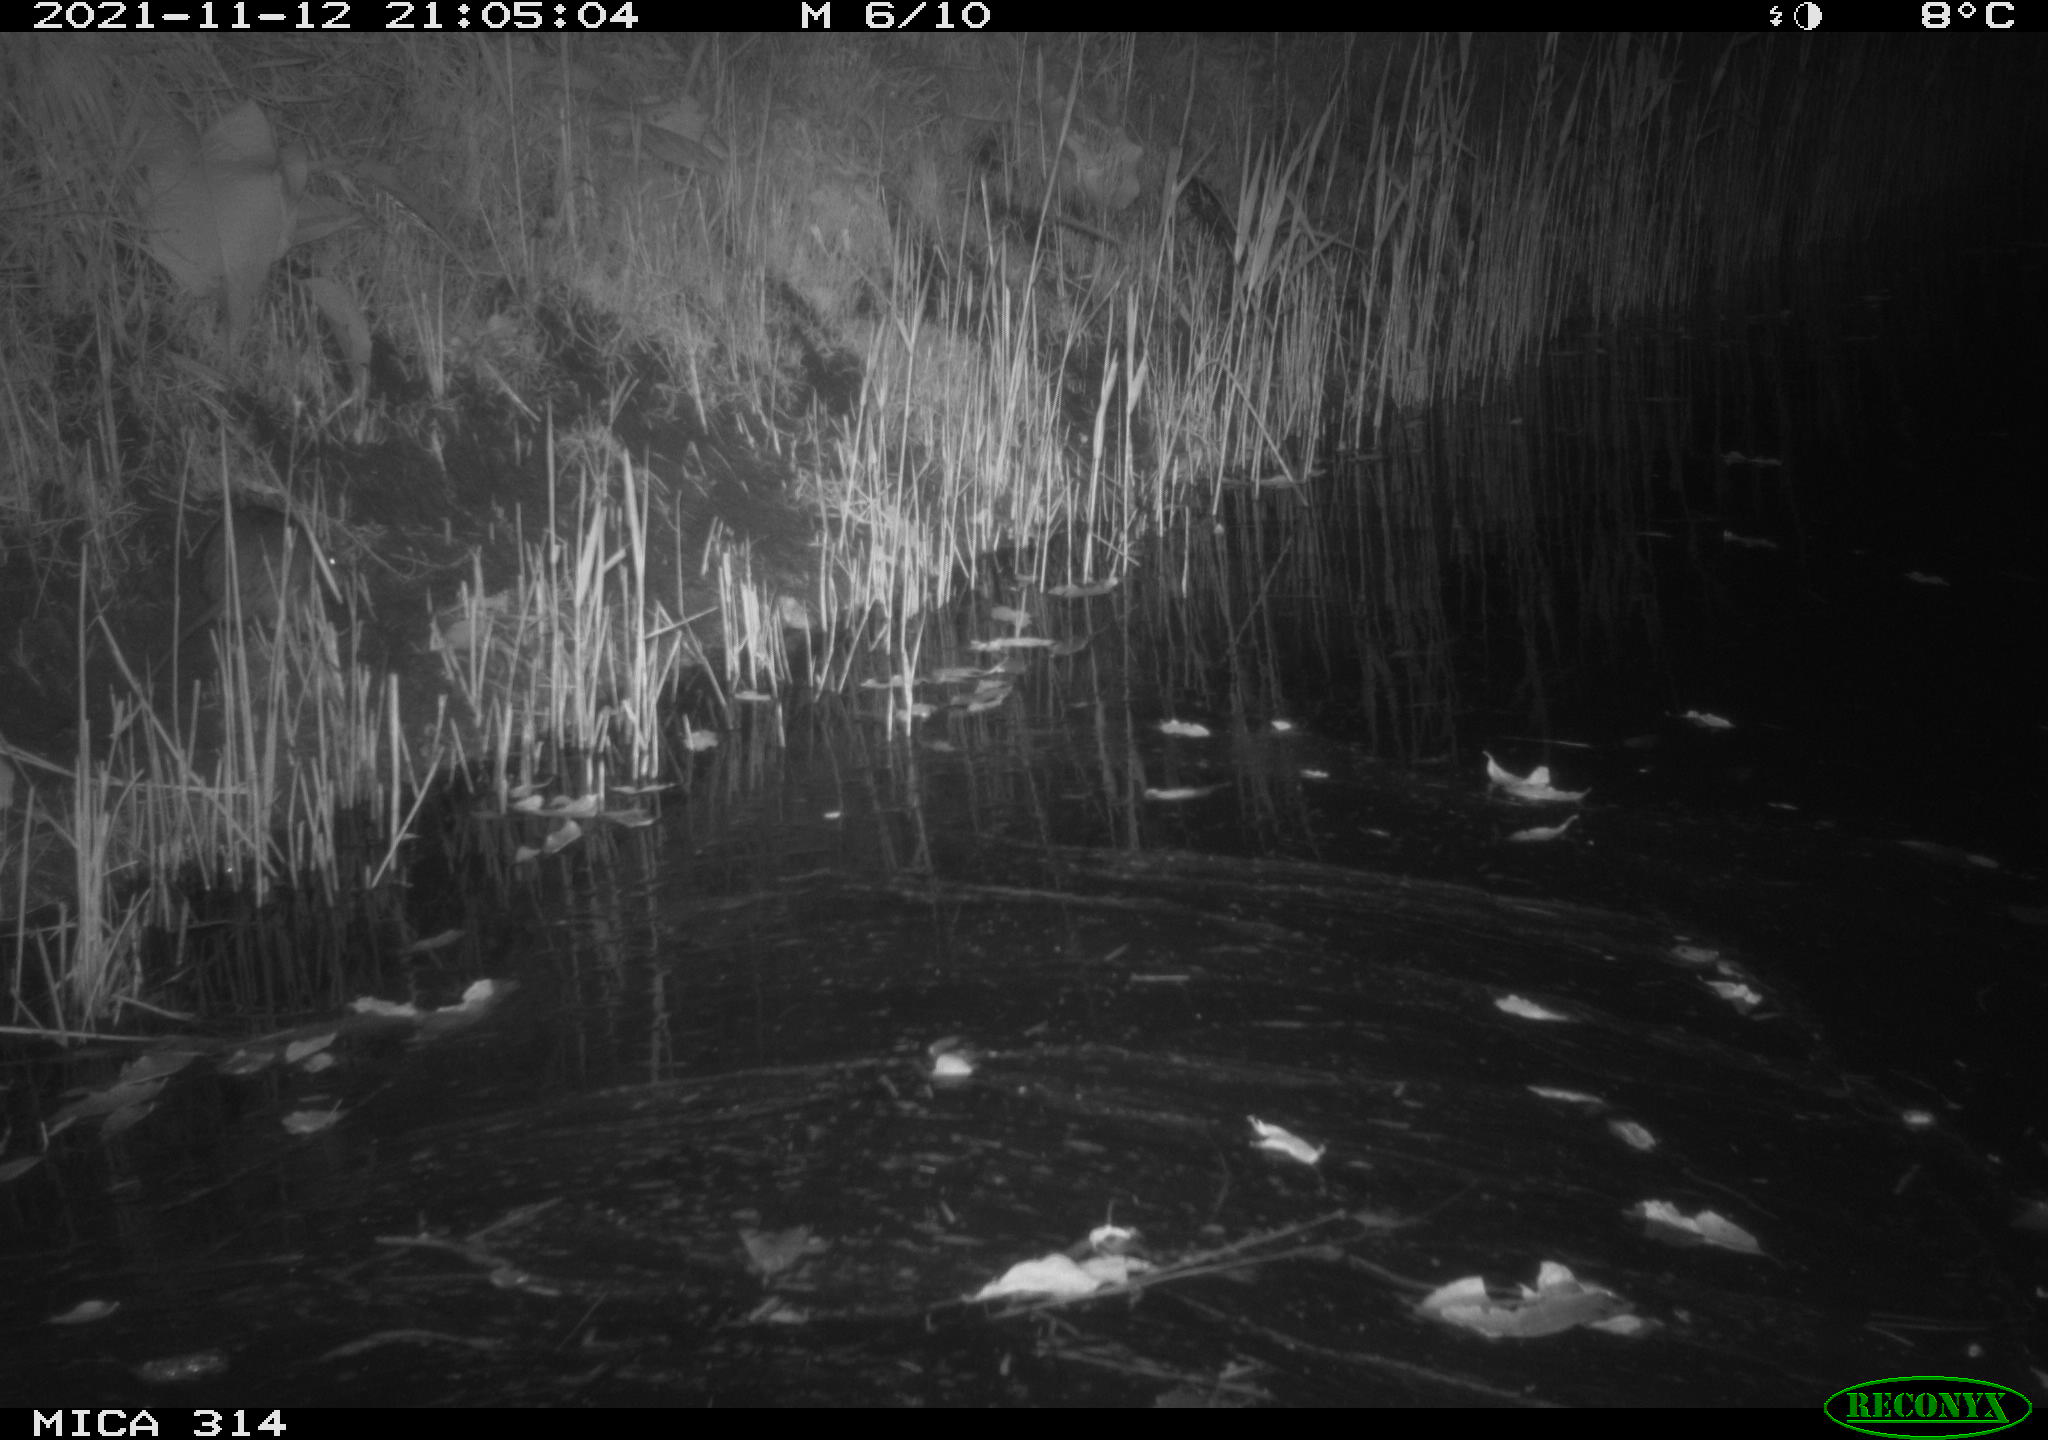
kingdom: Animalia
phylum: Chordata
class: Mammalia
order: Rodentia
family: Muridae
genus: Rattus
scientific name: Rattus norvegicus
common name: Brown rat
